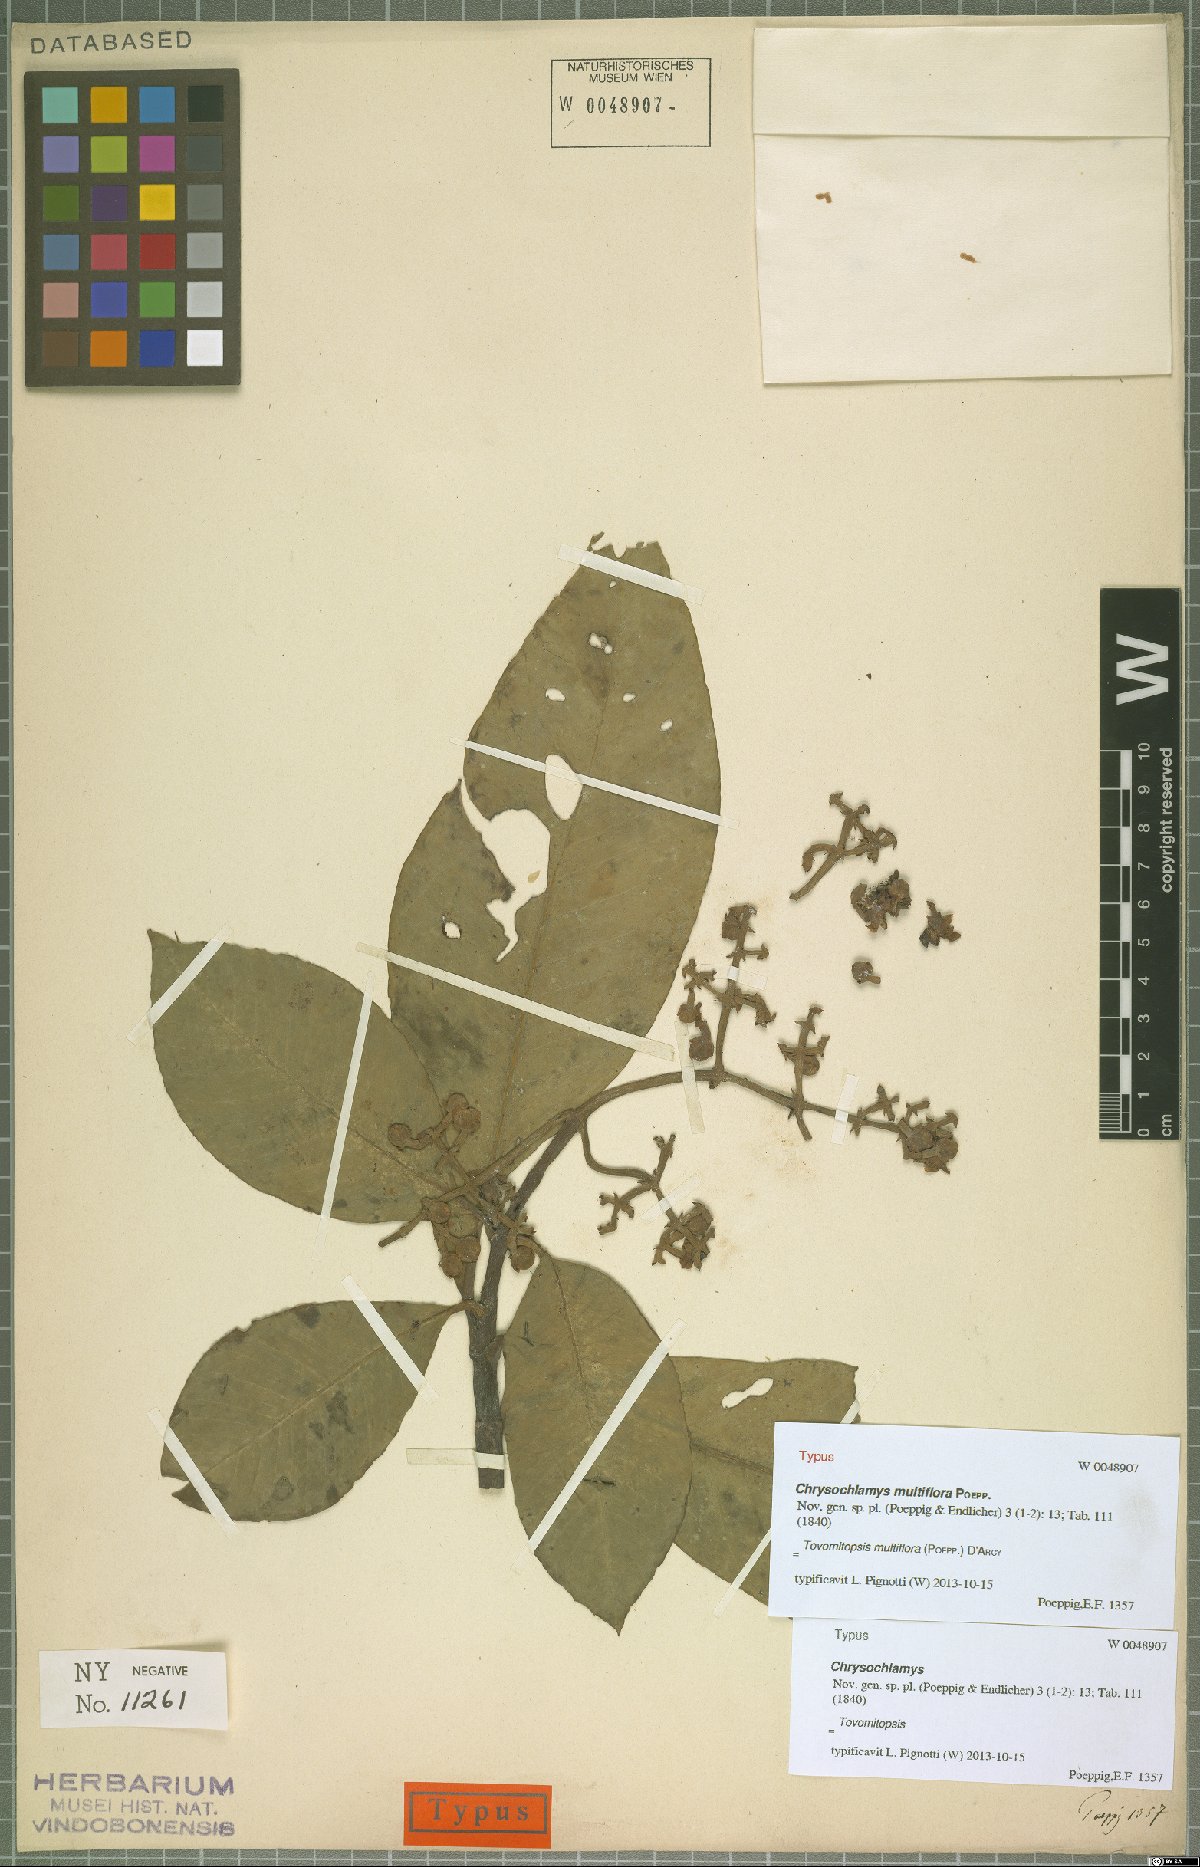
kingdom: Plantae
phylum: Tracheophyta
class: Magnoliopsida
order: Malpighiales
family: Clusiaceae
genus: Chrysochlamys
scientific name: Chrysochlamys multiflora
